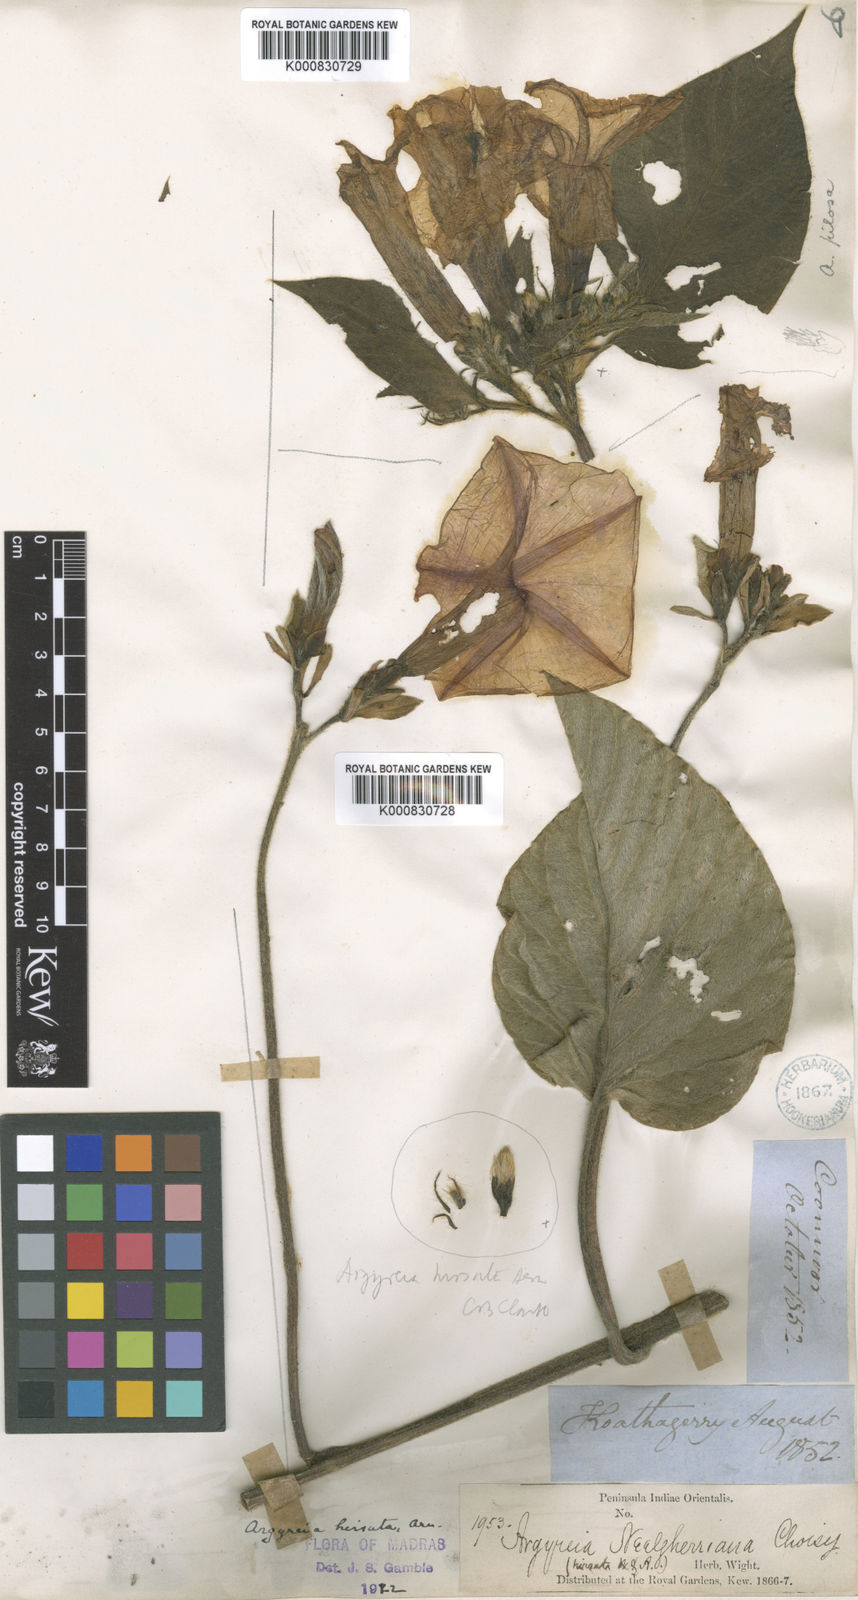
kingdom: Plantae
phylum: Tracheophyta
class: Magnoliopsida
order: Solanales
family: Convolvulaceae
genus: Argyreia
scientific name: Argyreia hirsuta
